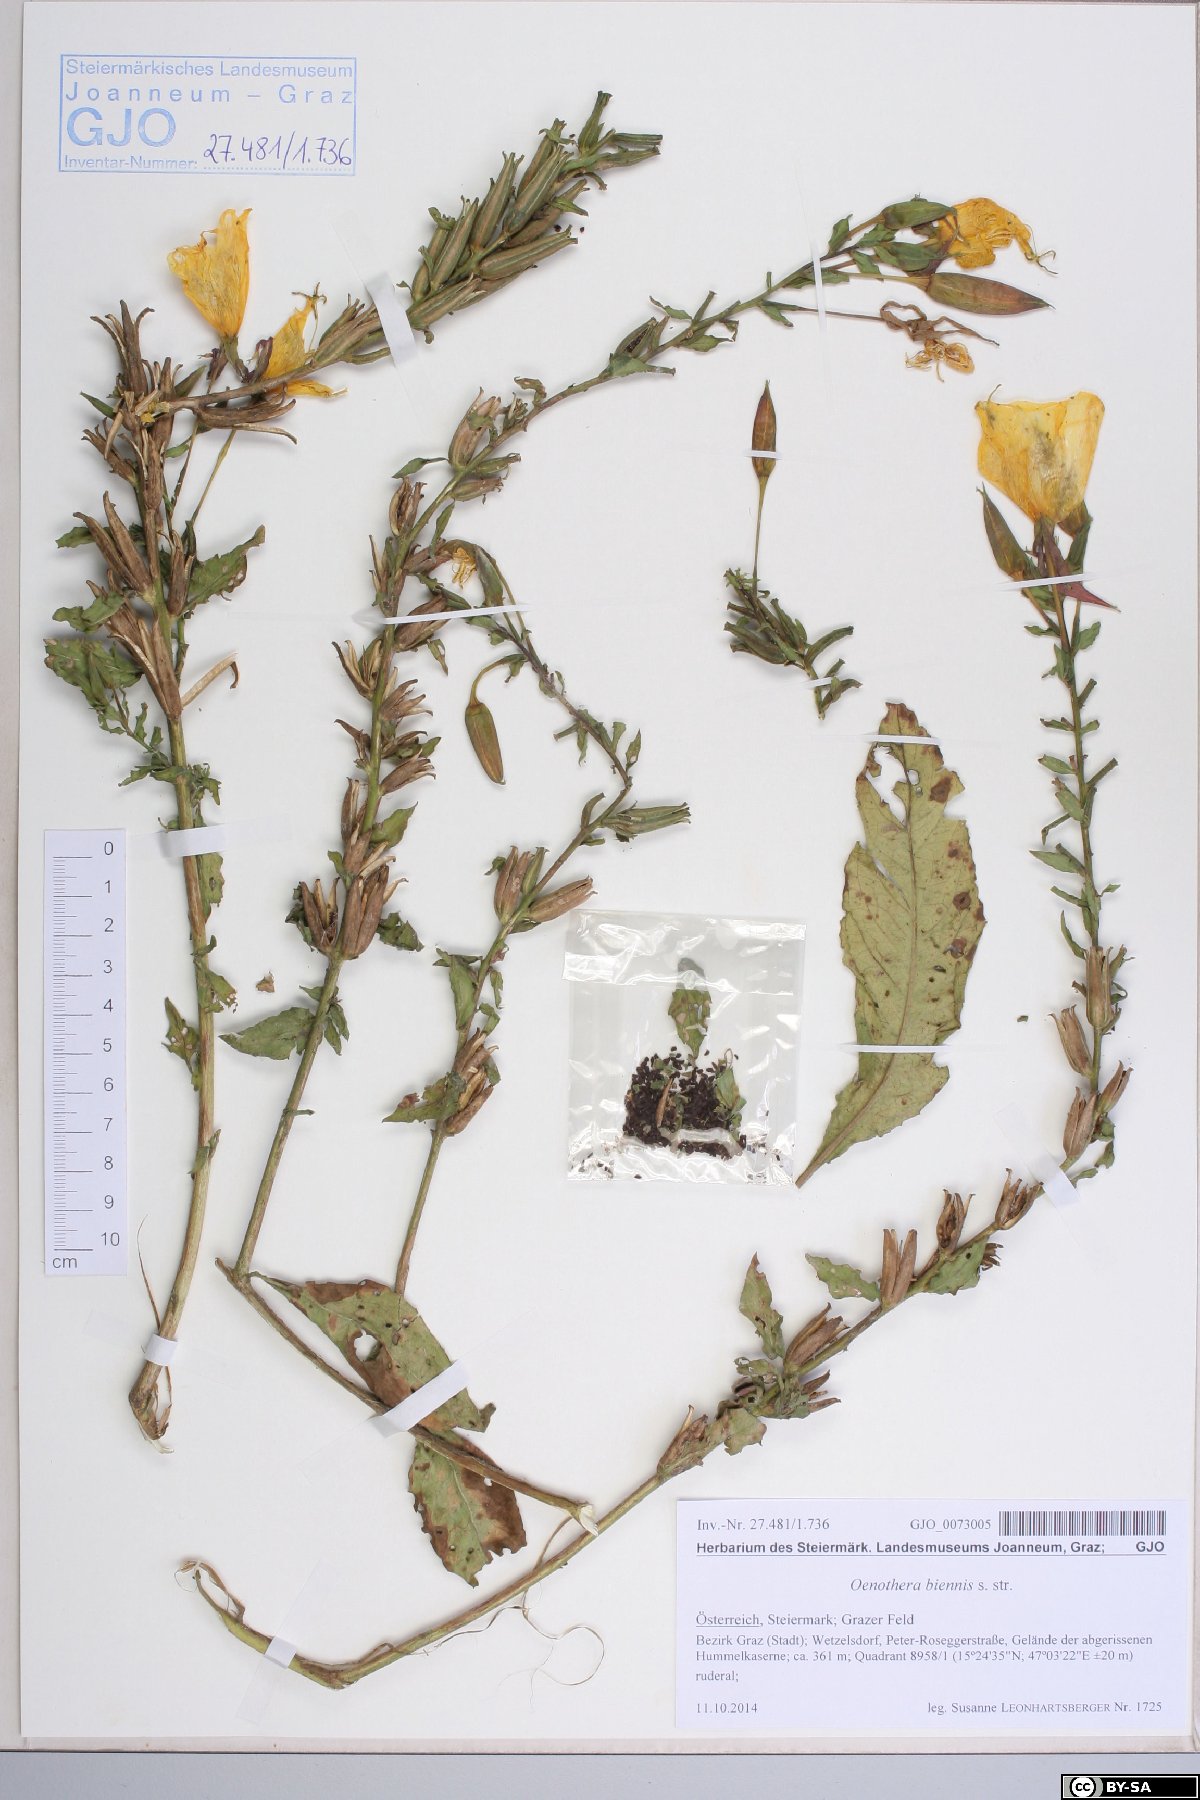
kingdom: Plantae
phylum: Tracheophyta
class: Magnoliopsida
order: Myrtales
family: Onagraceae
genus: Oenothera
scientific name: Oenothera biennis
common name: Common evening-primrose
